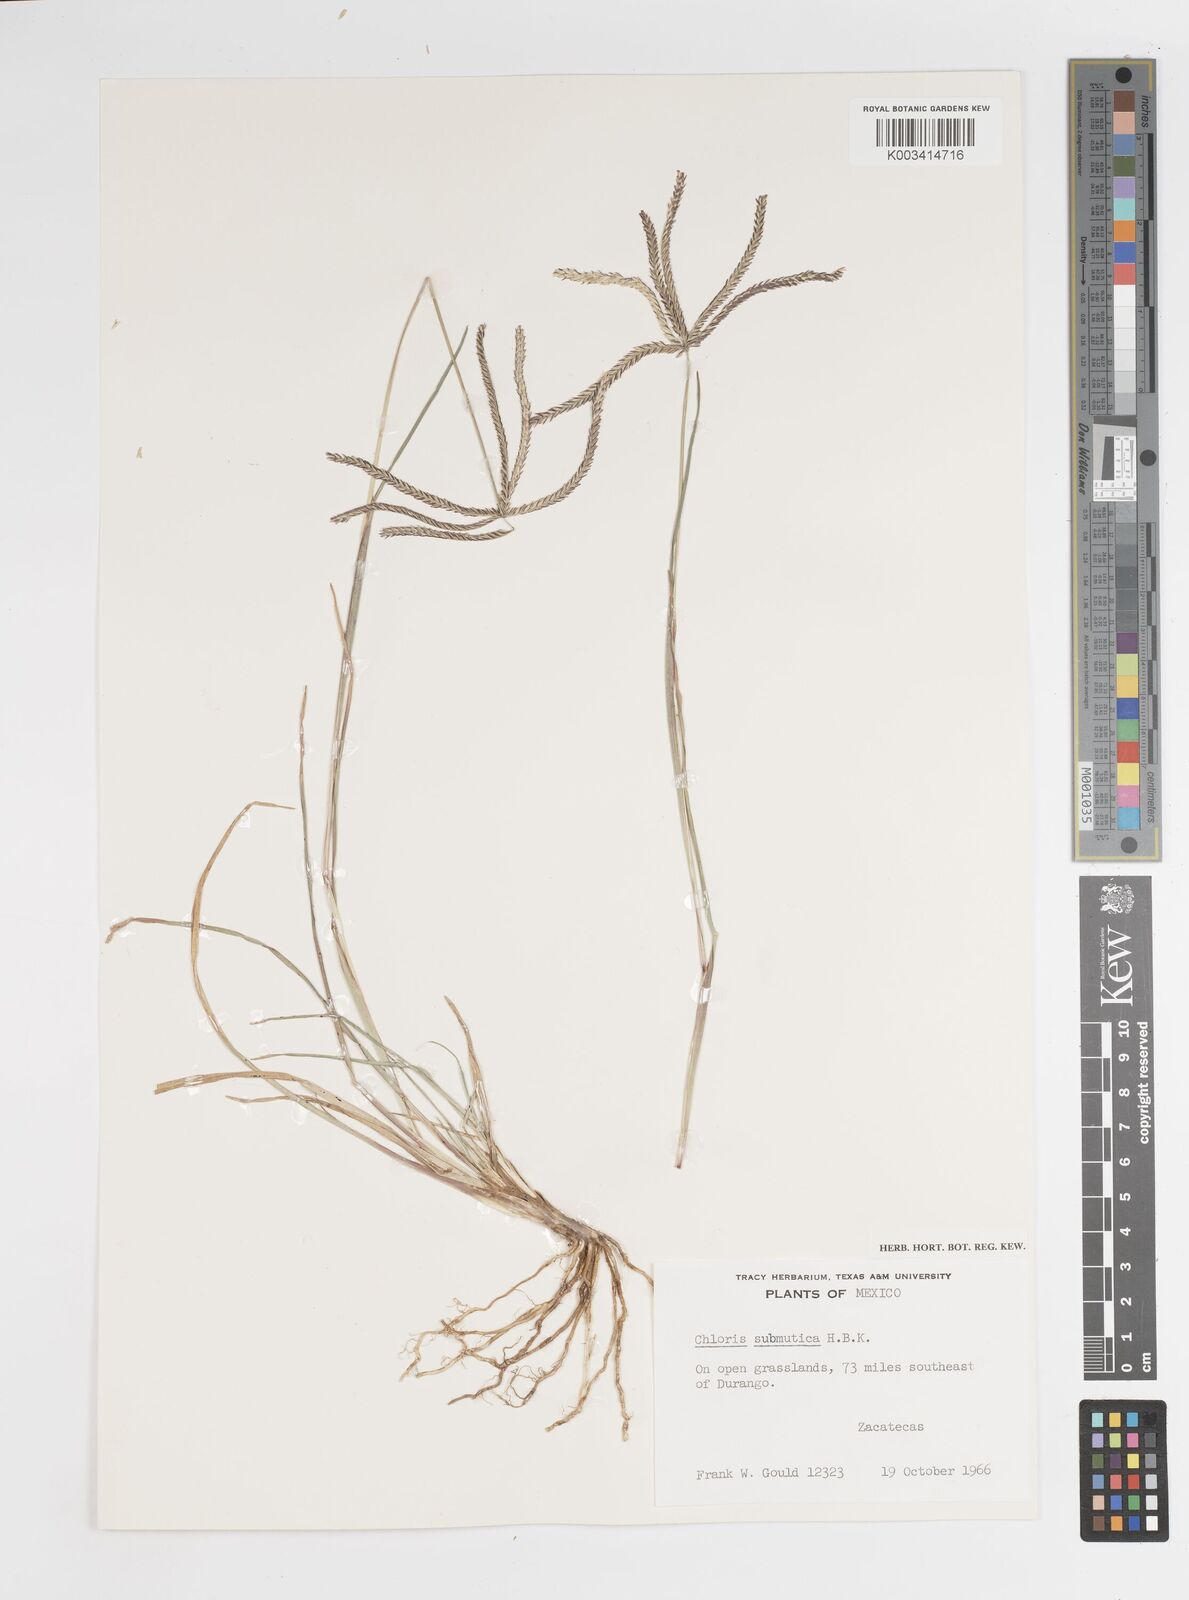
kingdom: Plantae
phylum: Tracheophyta
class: Liliopsida
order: Poales
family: Poaceae
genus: Chloris
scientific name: Chloris submutica
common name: Mexican windmill grass
